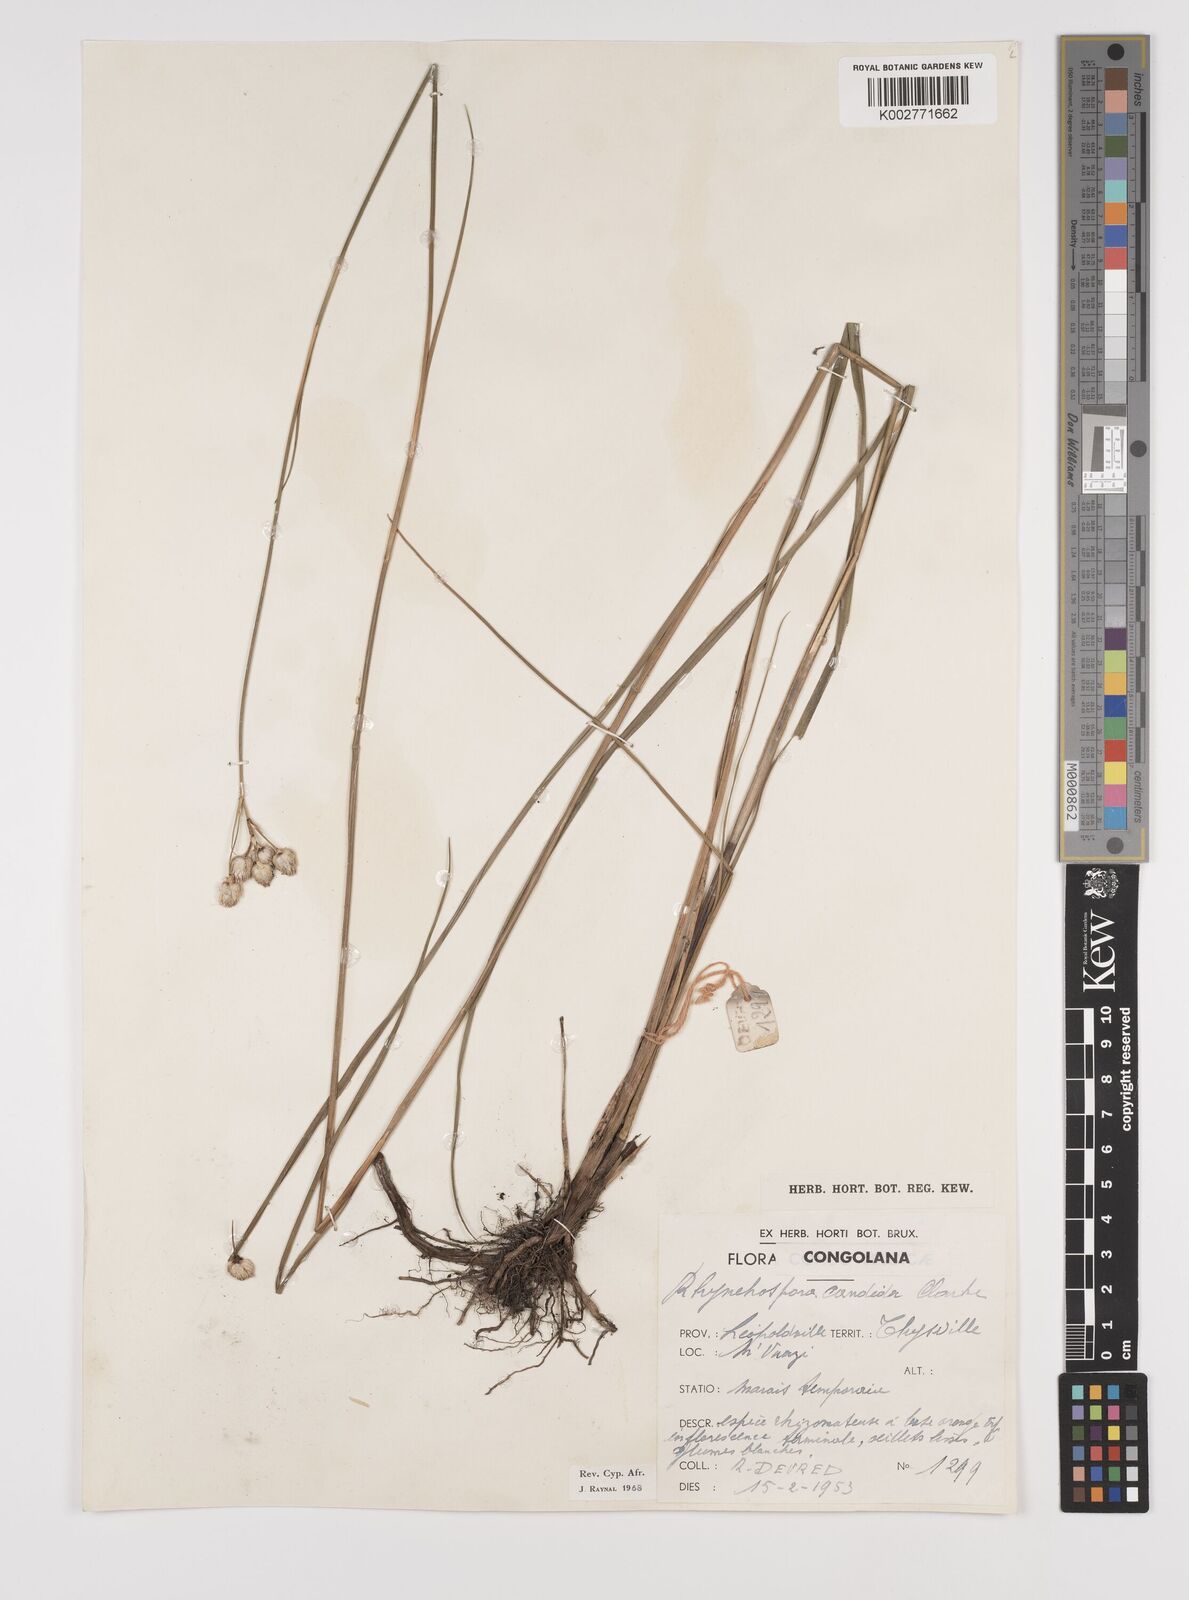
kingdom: Plantae
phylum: Tracheophyta
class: Liliopsida
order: Poales
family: Cyperaceae
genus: Rhynchospora
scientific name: Rhynchospora candida
